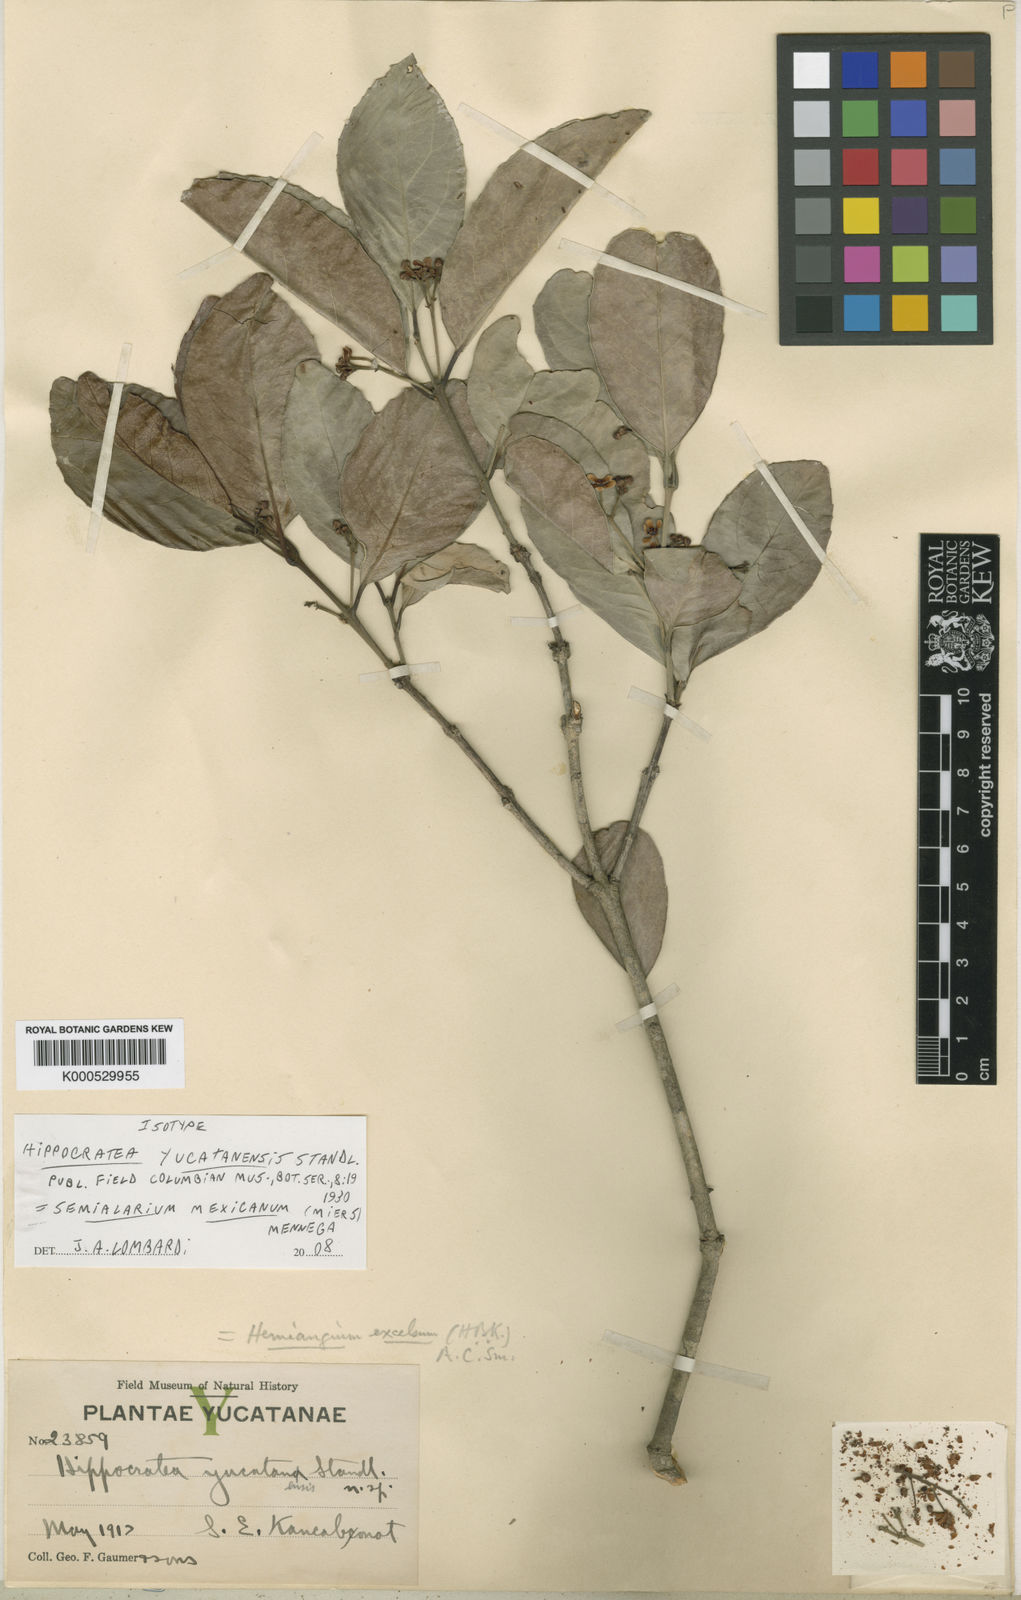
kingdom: Plantae
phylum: Tracheophyta
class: Magnoliopsida
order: Celastrales
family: Celastraceae
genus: Semialarium
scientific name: Semialarium mexicanum
